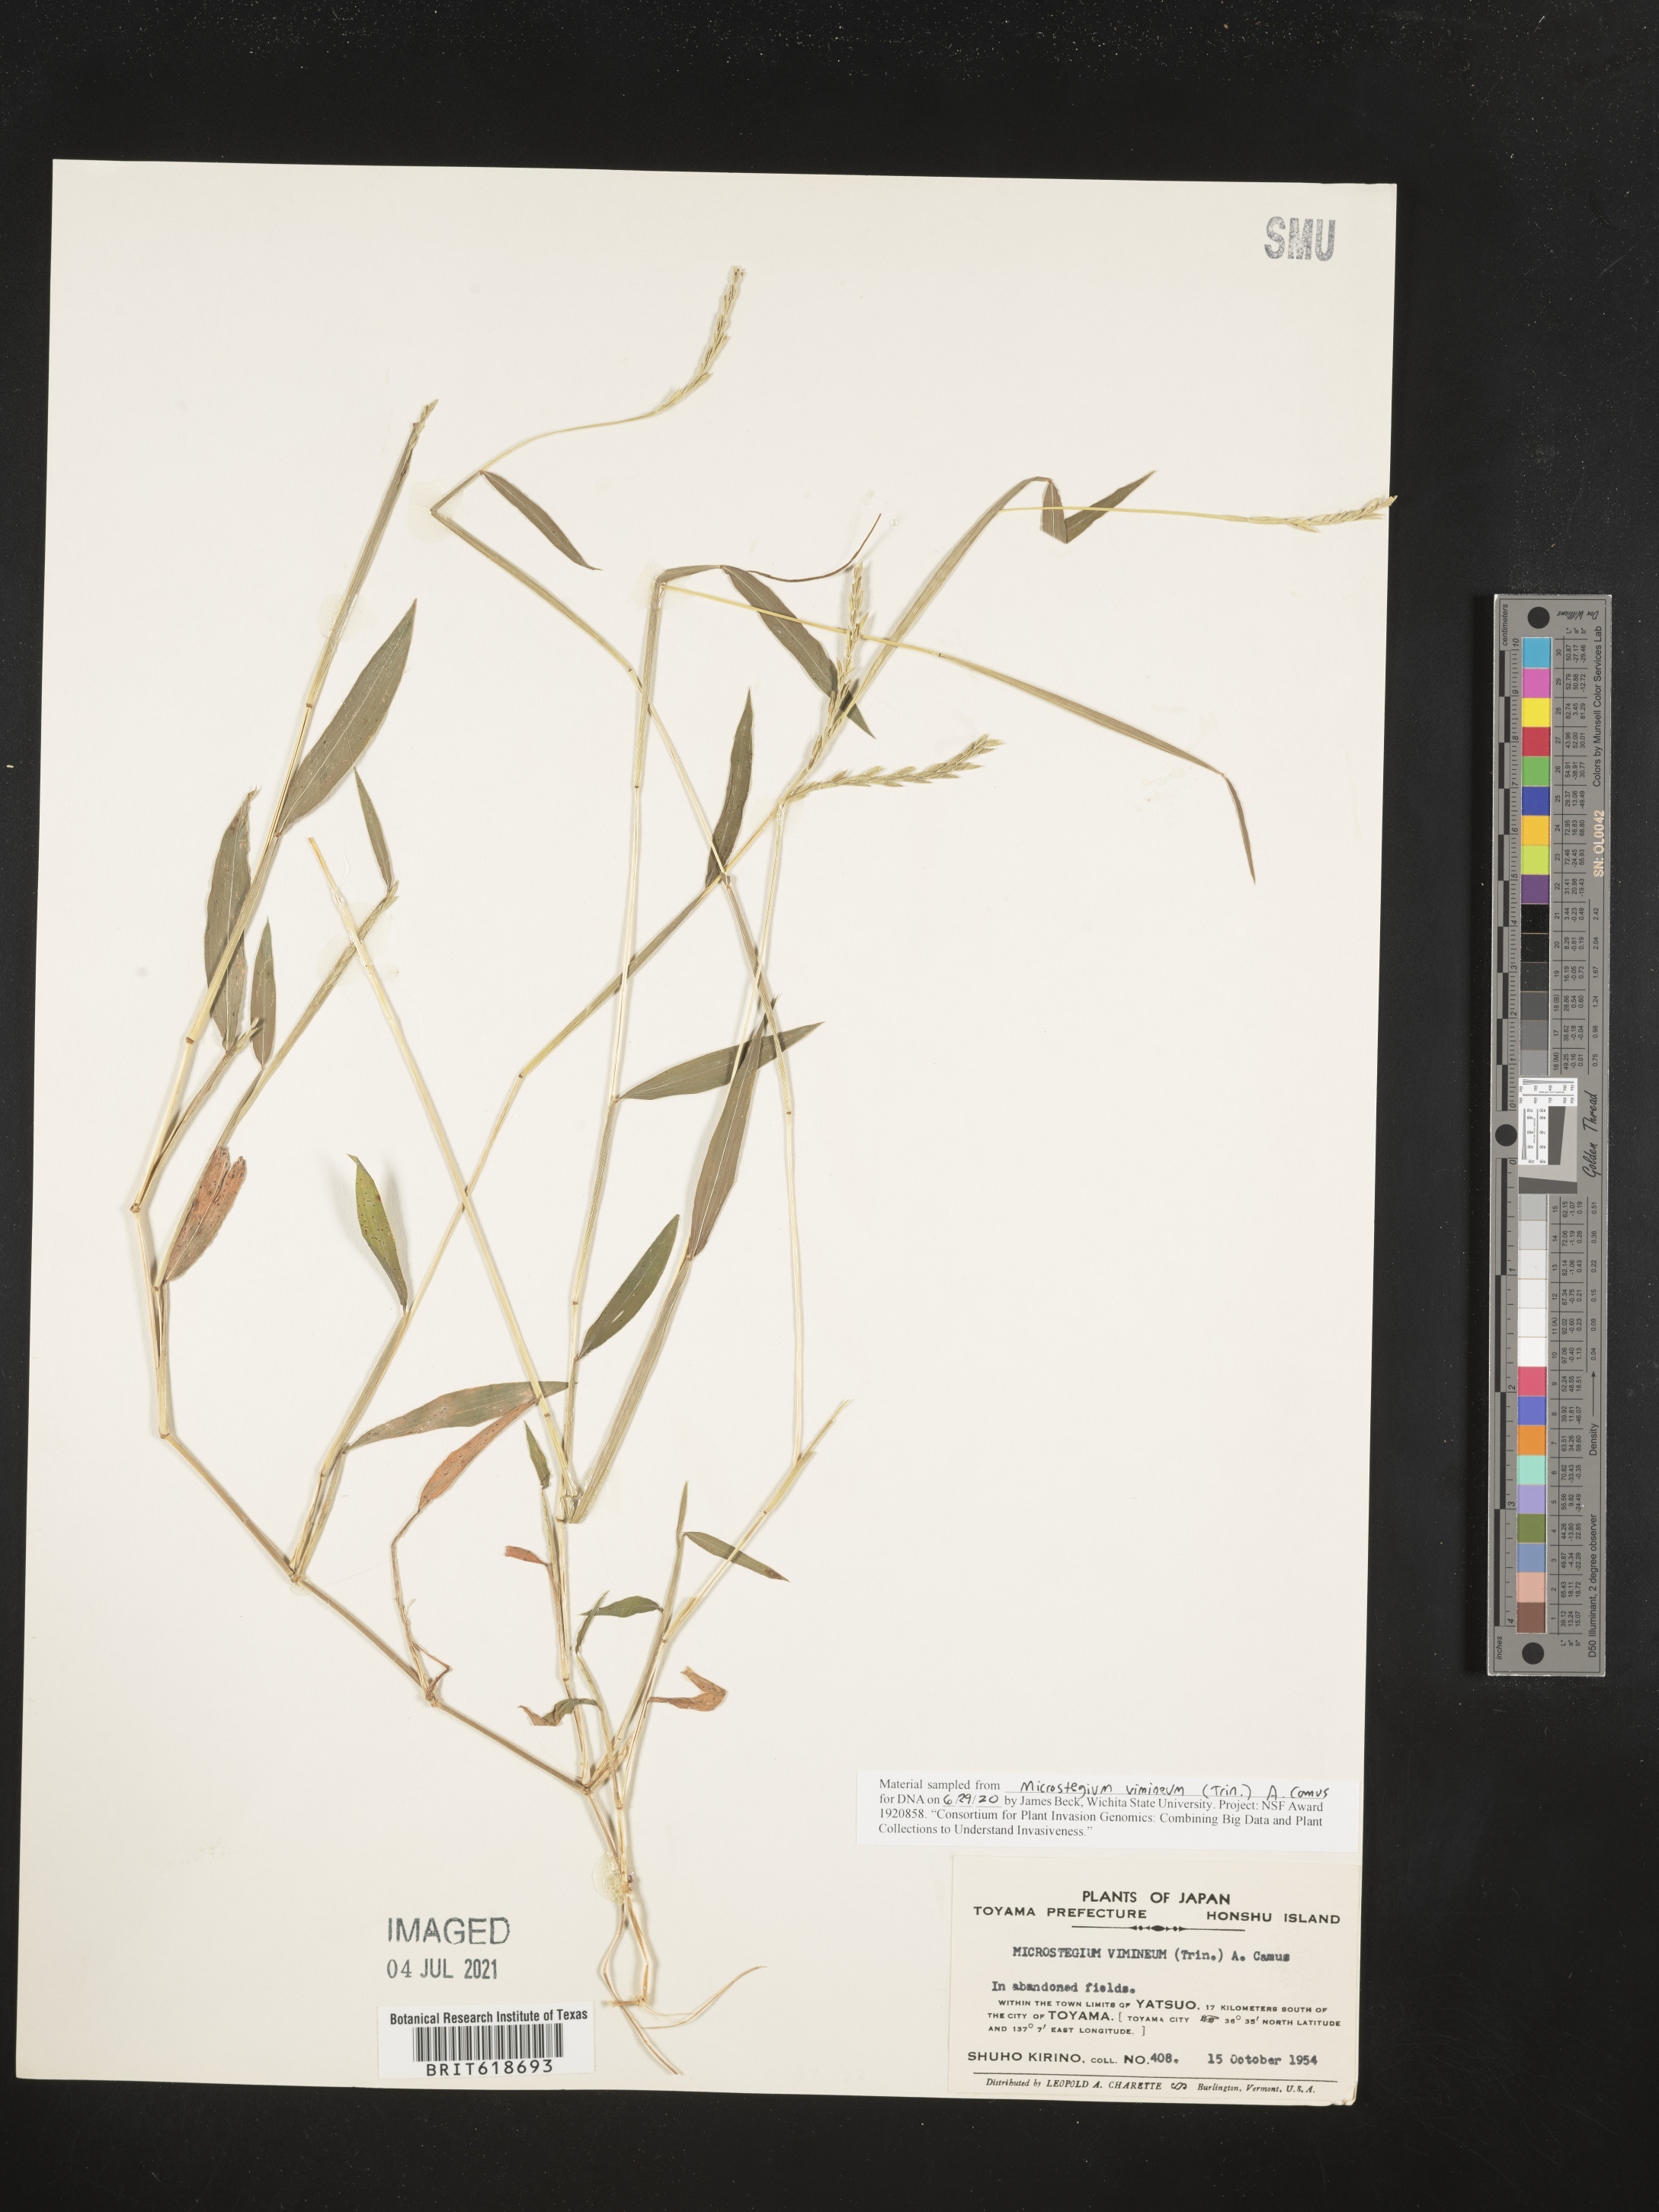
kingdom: Plantae
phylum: Tracheophyta
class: Liliopsida
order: Poales
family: Poaceae
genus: Microstegium
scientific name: Microstegium vimineum
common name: Japanese stiltgrass
